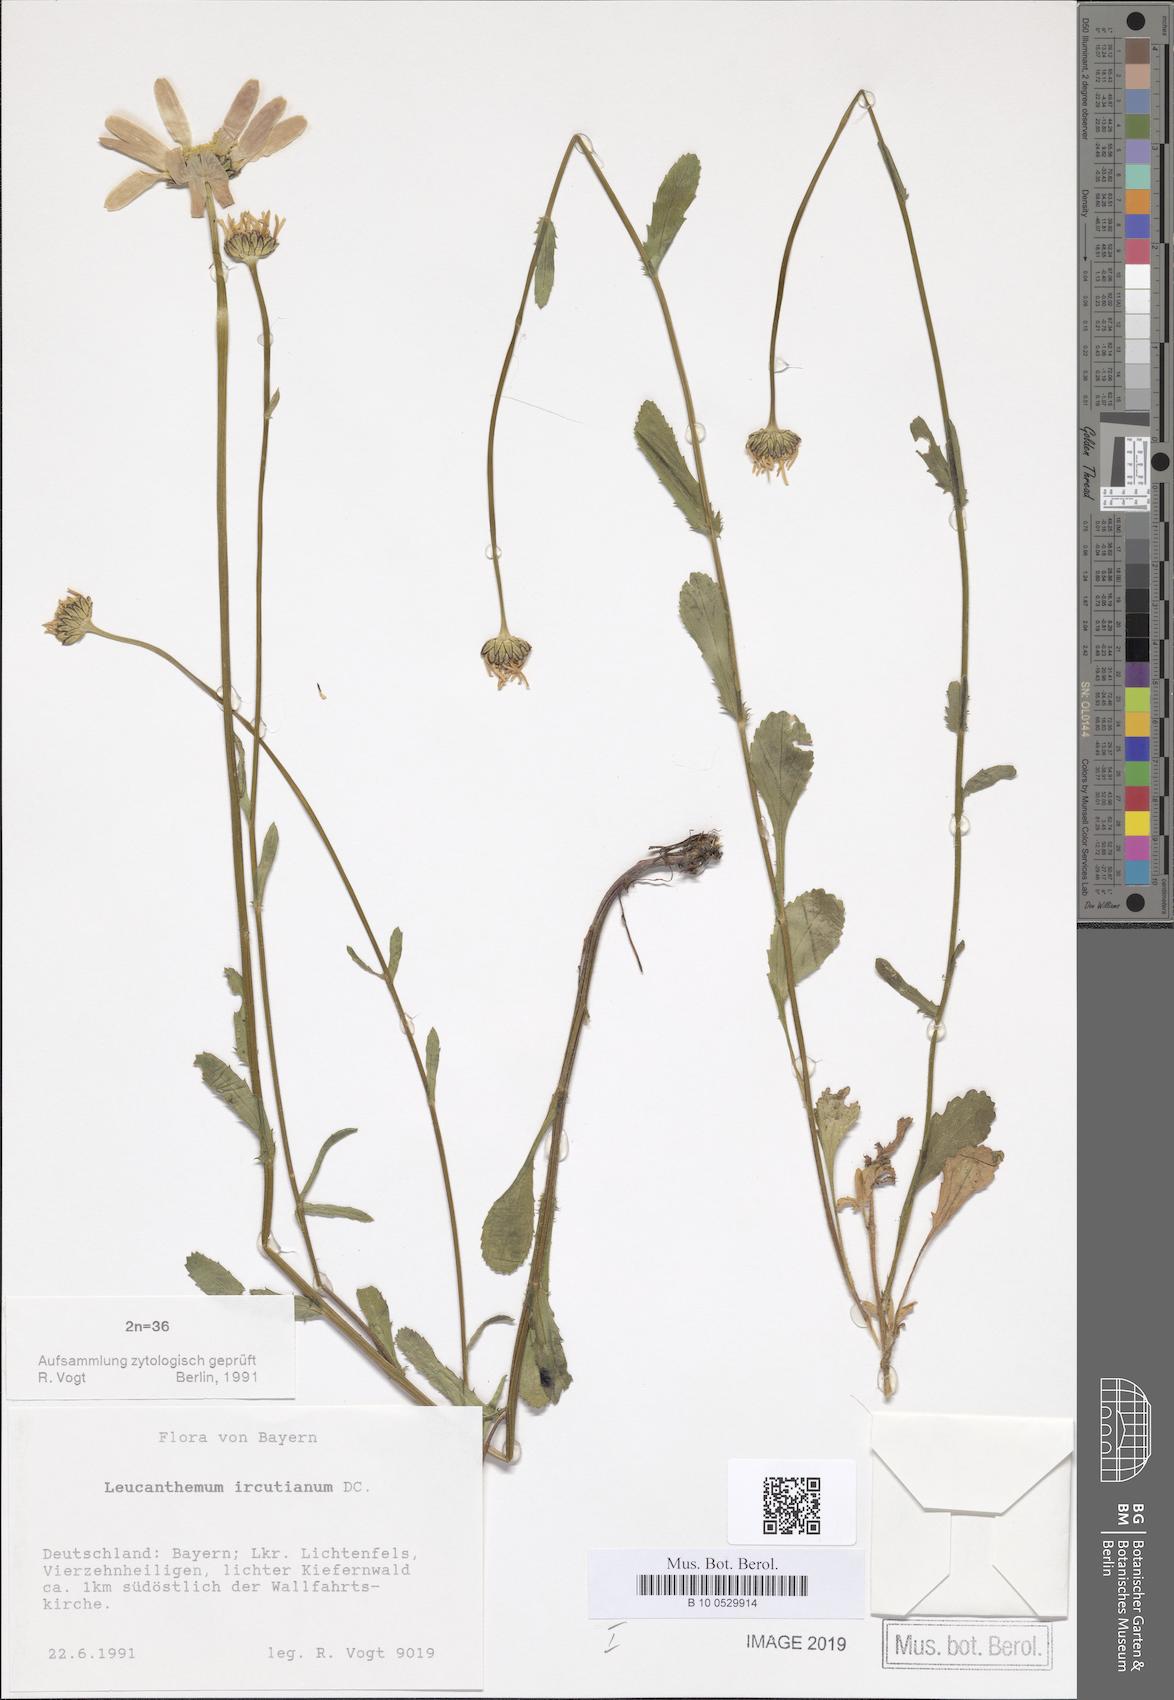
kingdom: Plantae
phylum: Tracheophyta
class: Magnoliopsida
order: Asterales
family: Asteraceae
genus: Leucanthemum
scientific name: Leucanthemum ircutianum
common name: Daisy
